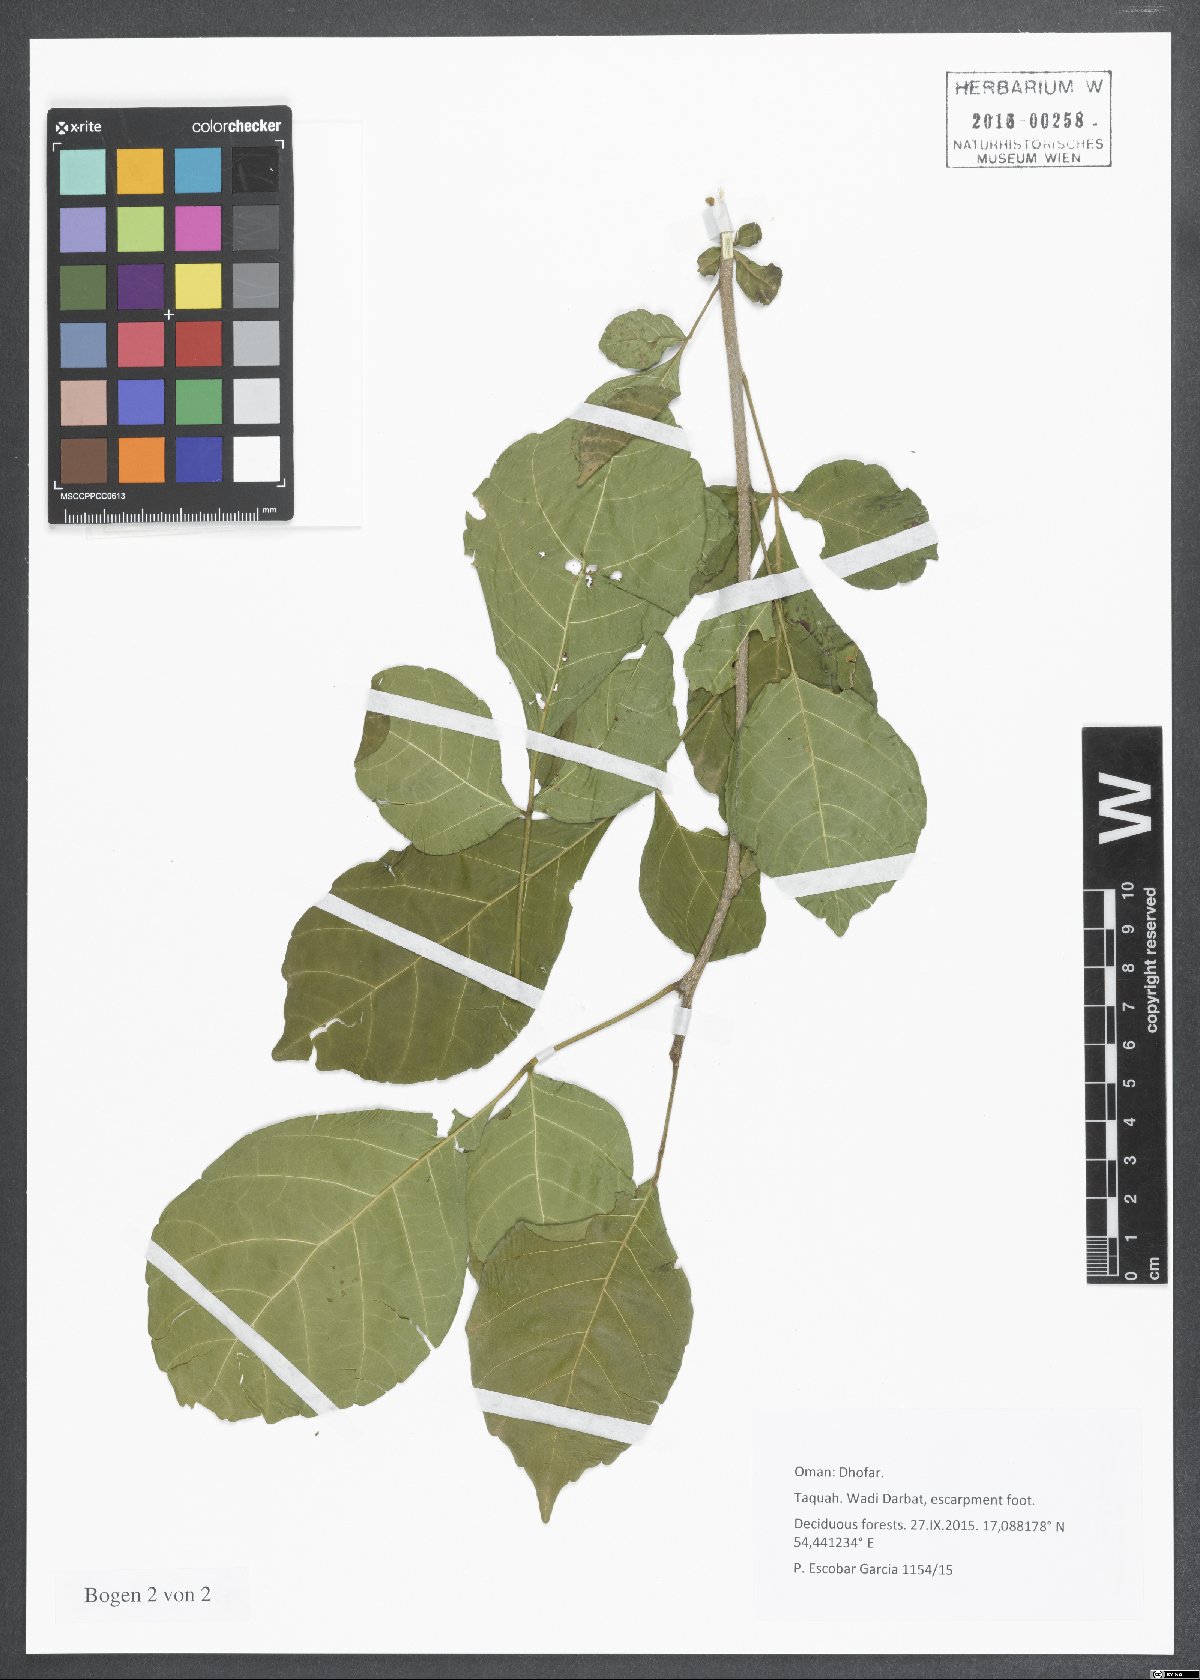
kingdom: Plantae
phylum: Tracheophyta
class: Magnoliopsida
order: Sapindales
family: Anacardiaceae
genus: Lannea
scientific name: Lannea
